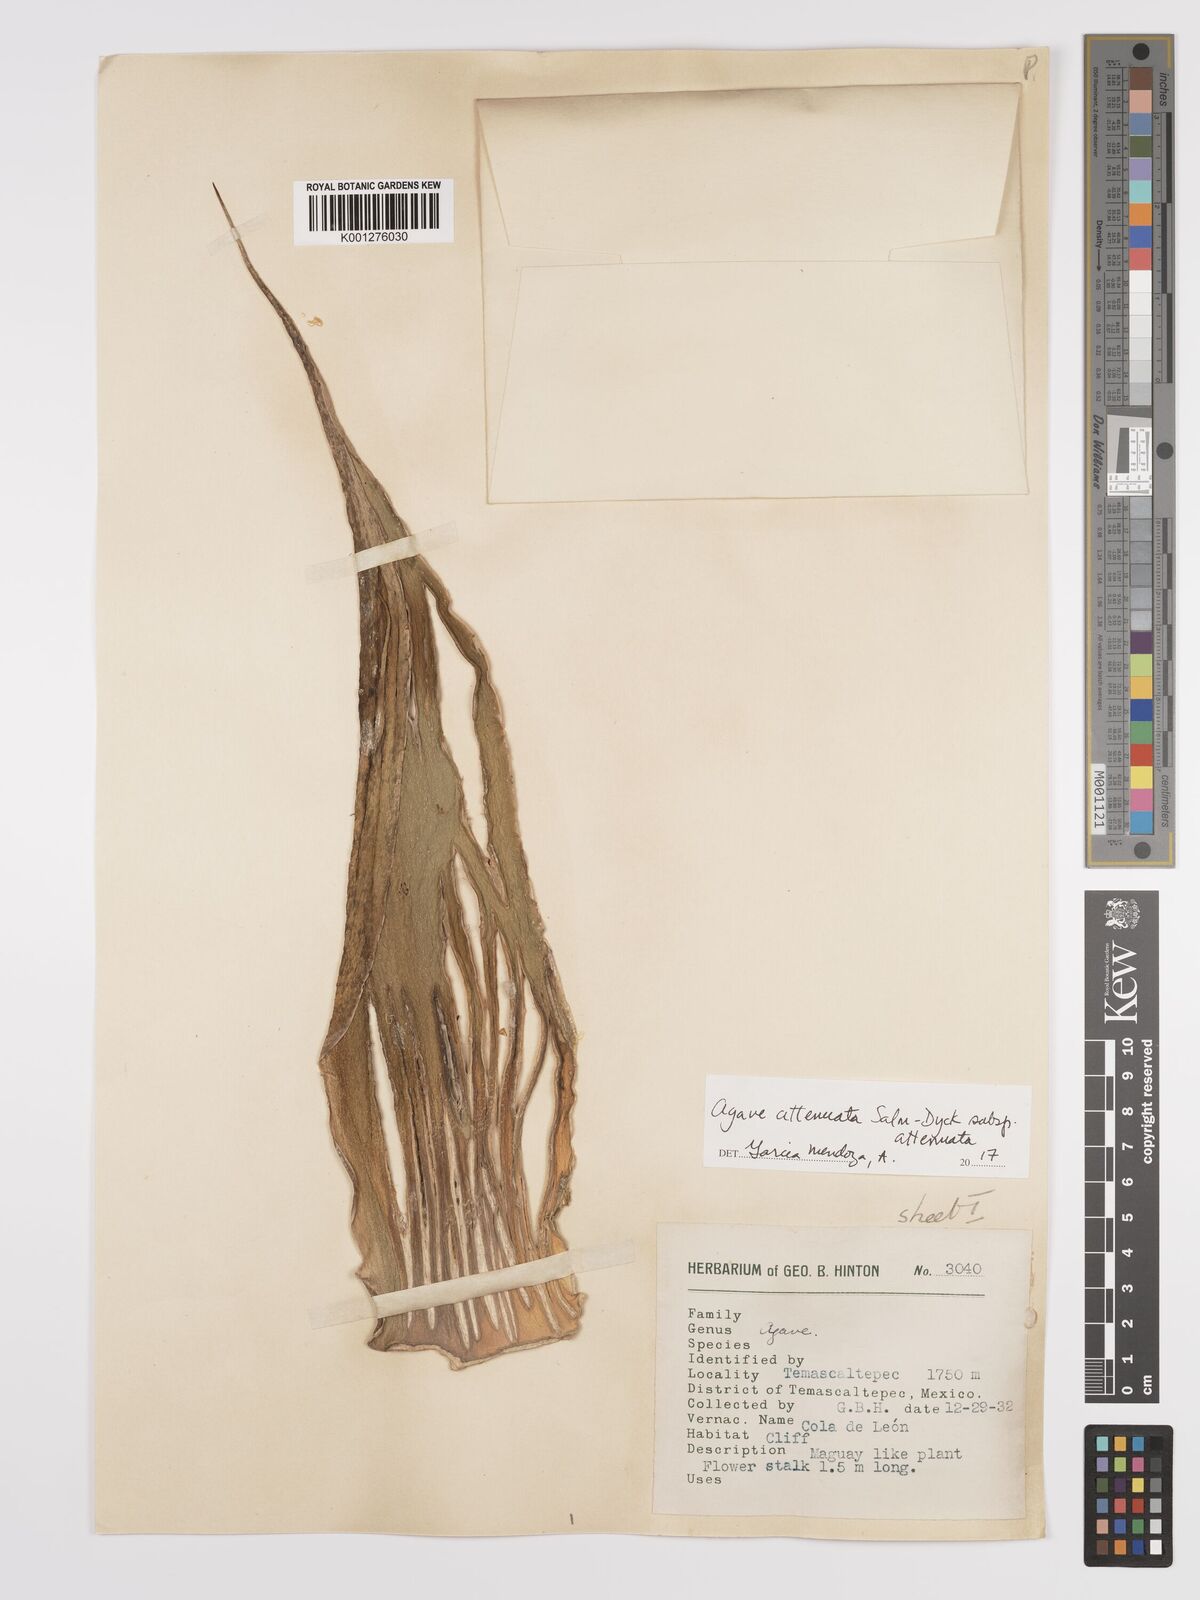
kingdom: Plantae
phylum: Tracheophyta
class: Liliopsida
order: Asparagales
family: Asparagaceae
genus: Agave
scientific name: Agave attenuata
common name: Fox tail agave
